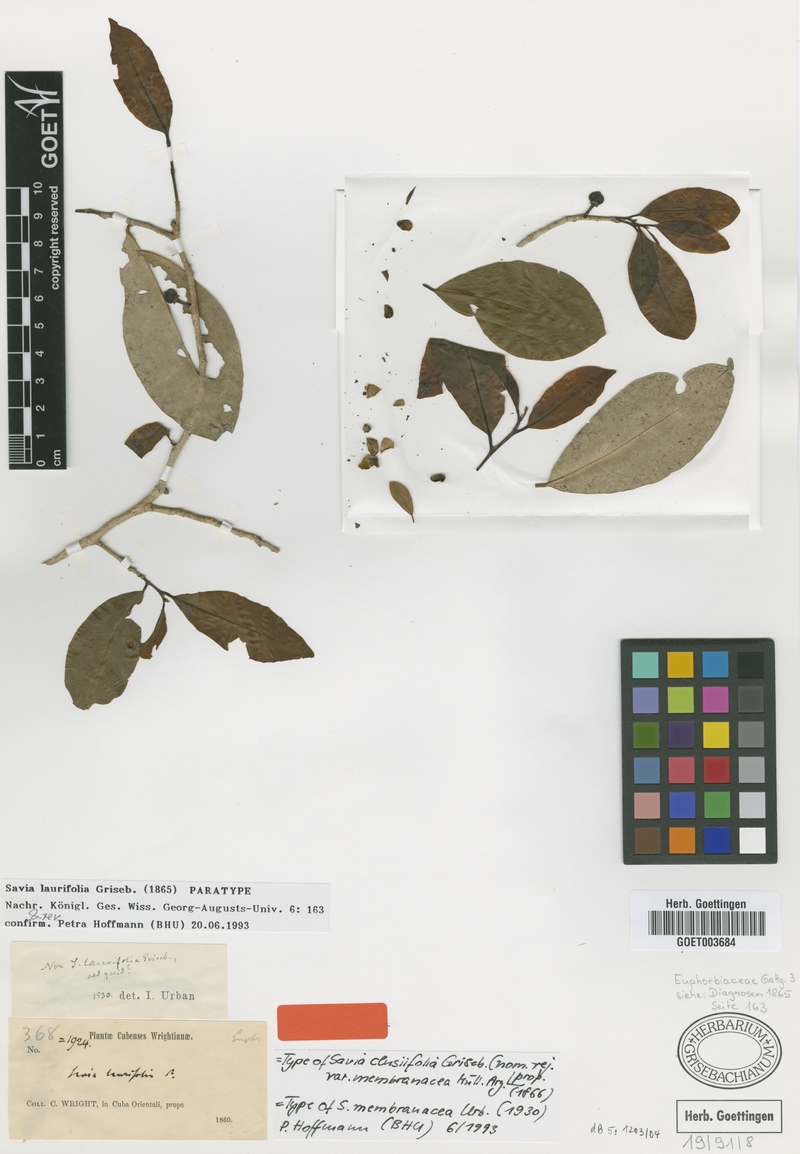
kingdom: Plantae
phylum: Tracheophyta
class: Magnoliopsida
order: Malpighiales
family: Phyllanthaceae
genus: Heterosavia
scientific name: Heterosavia laurifolia
